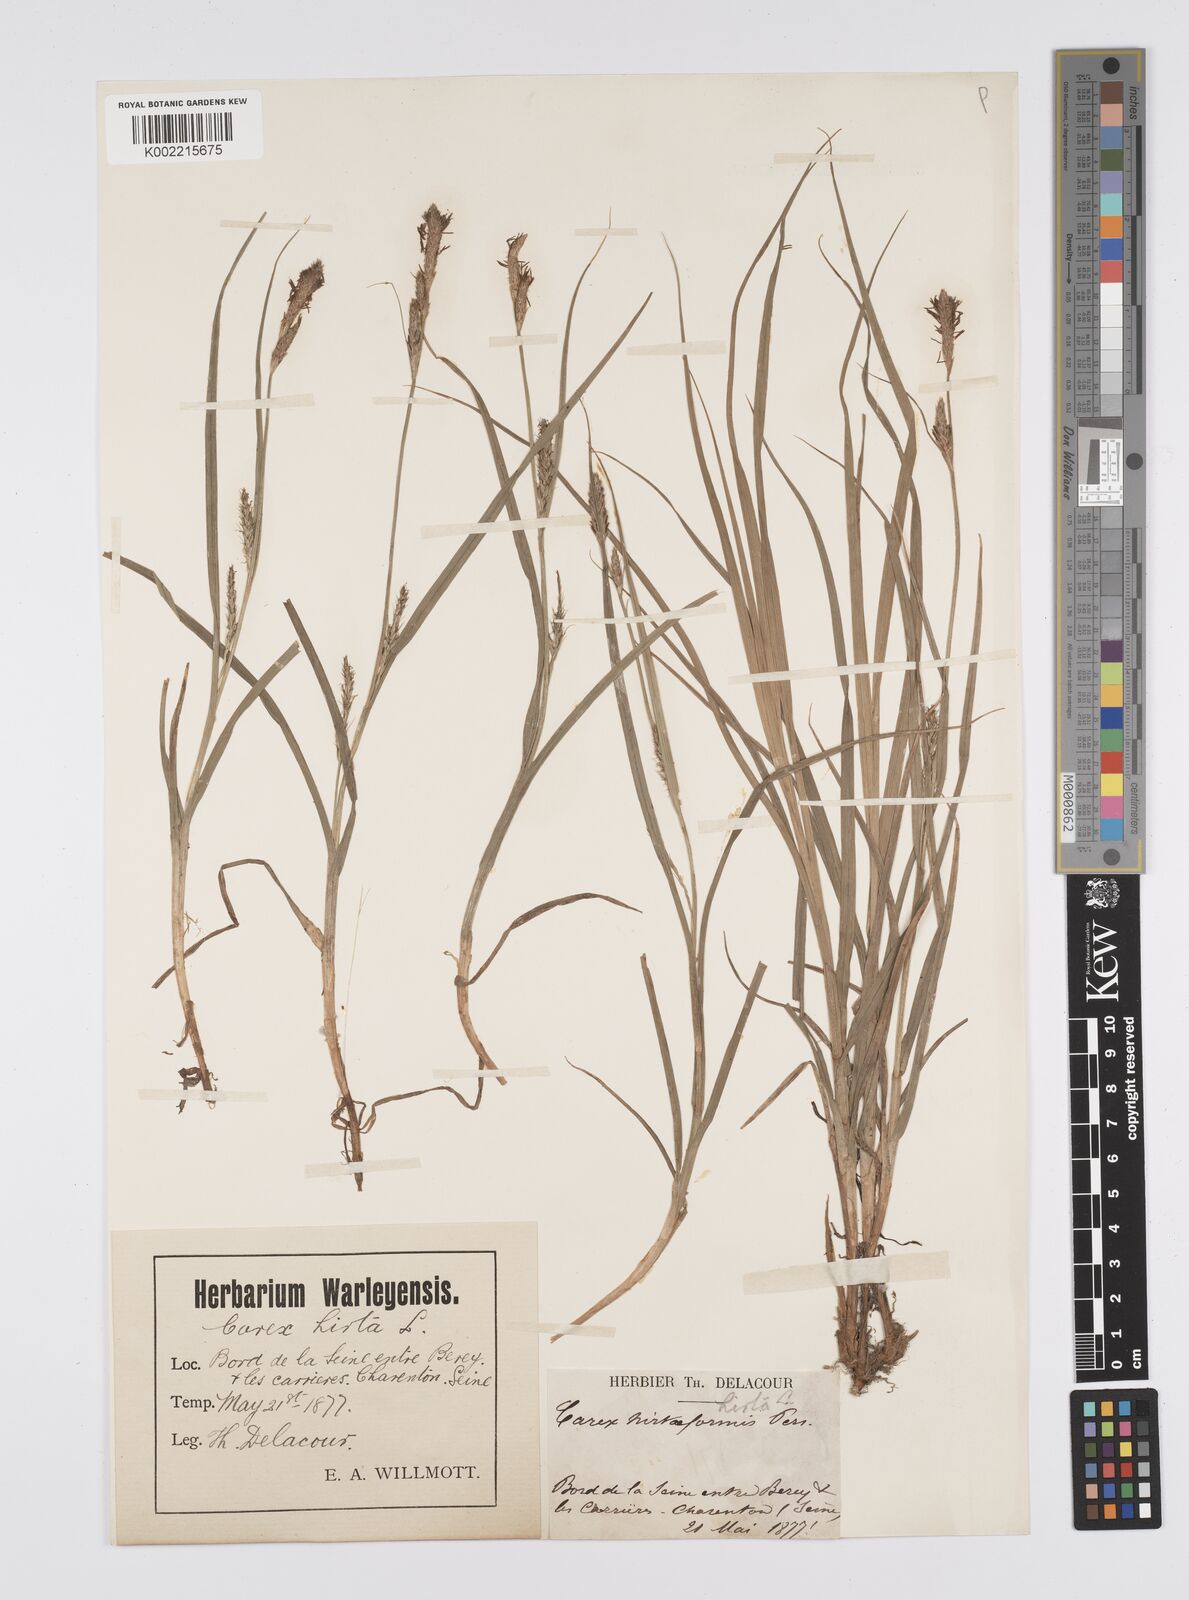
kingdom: Plantae
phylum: Tracheophyta
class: Liliopsida
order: Poales
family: Cyperaceae
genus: Carex
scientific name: Carex hirta
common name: Hairy sedge
